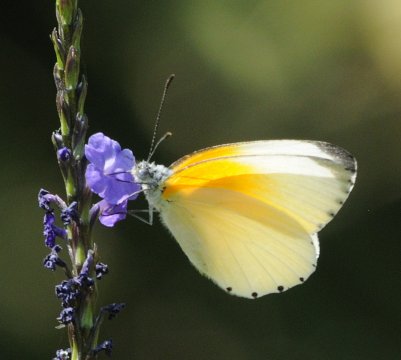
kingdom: Animalia
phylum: Arthropoda
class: Insecta
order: Lepidoptera
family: Pieridae
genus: Mylothris
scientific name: Mylothris rueppellii
